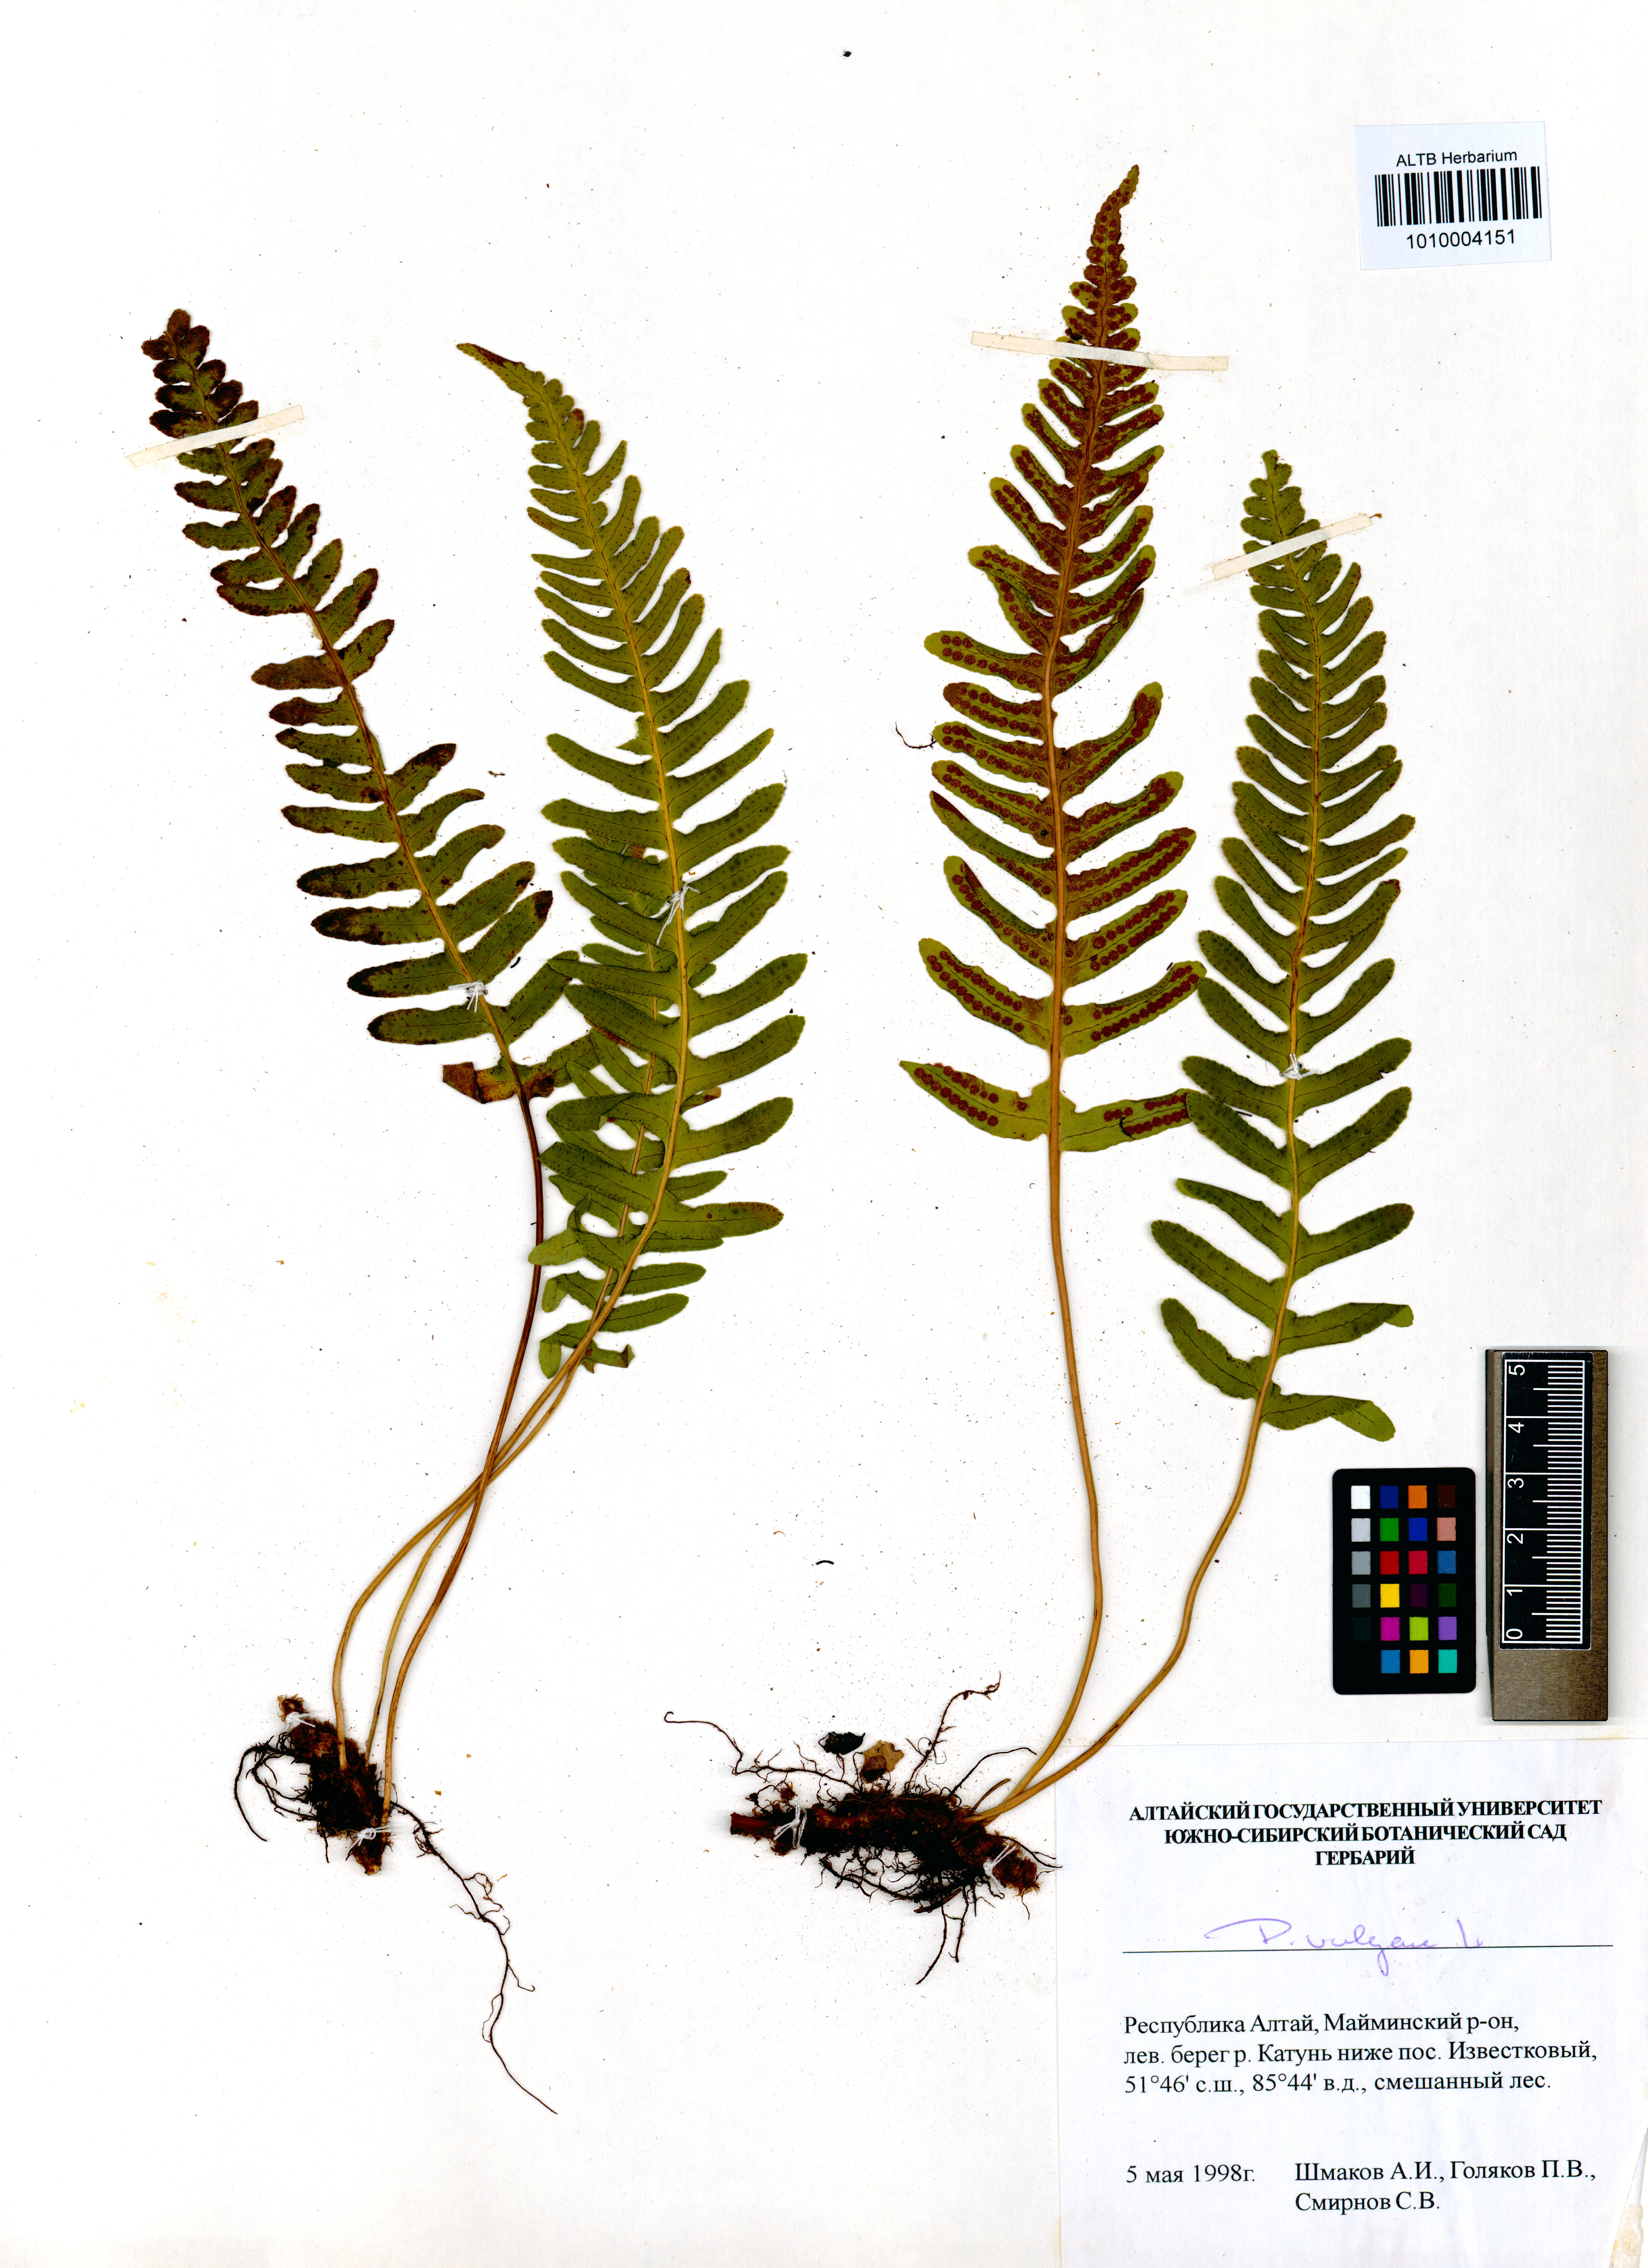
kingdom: Plantae
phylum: Tracheophyta
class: Polypodiopsida
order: Polypodiales
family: Polypodiaceae
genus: Polypodium
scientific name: Polypodium vulgare
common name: Common polypody
